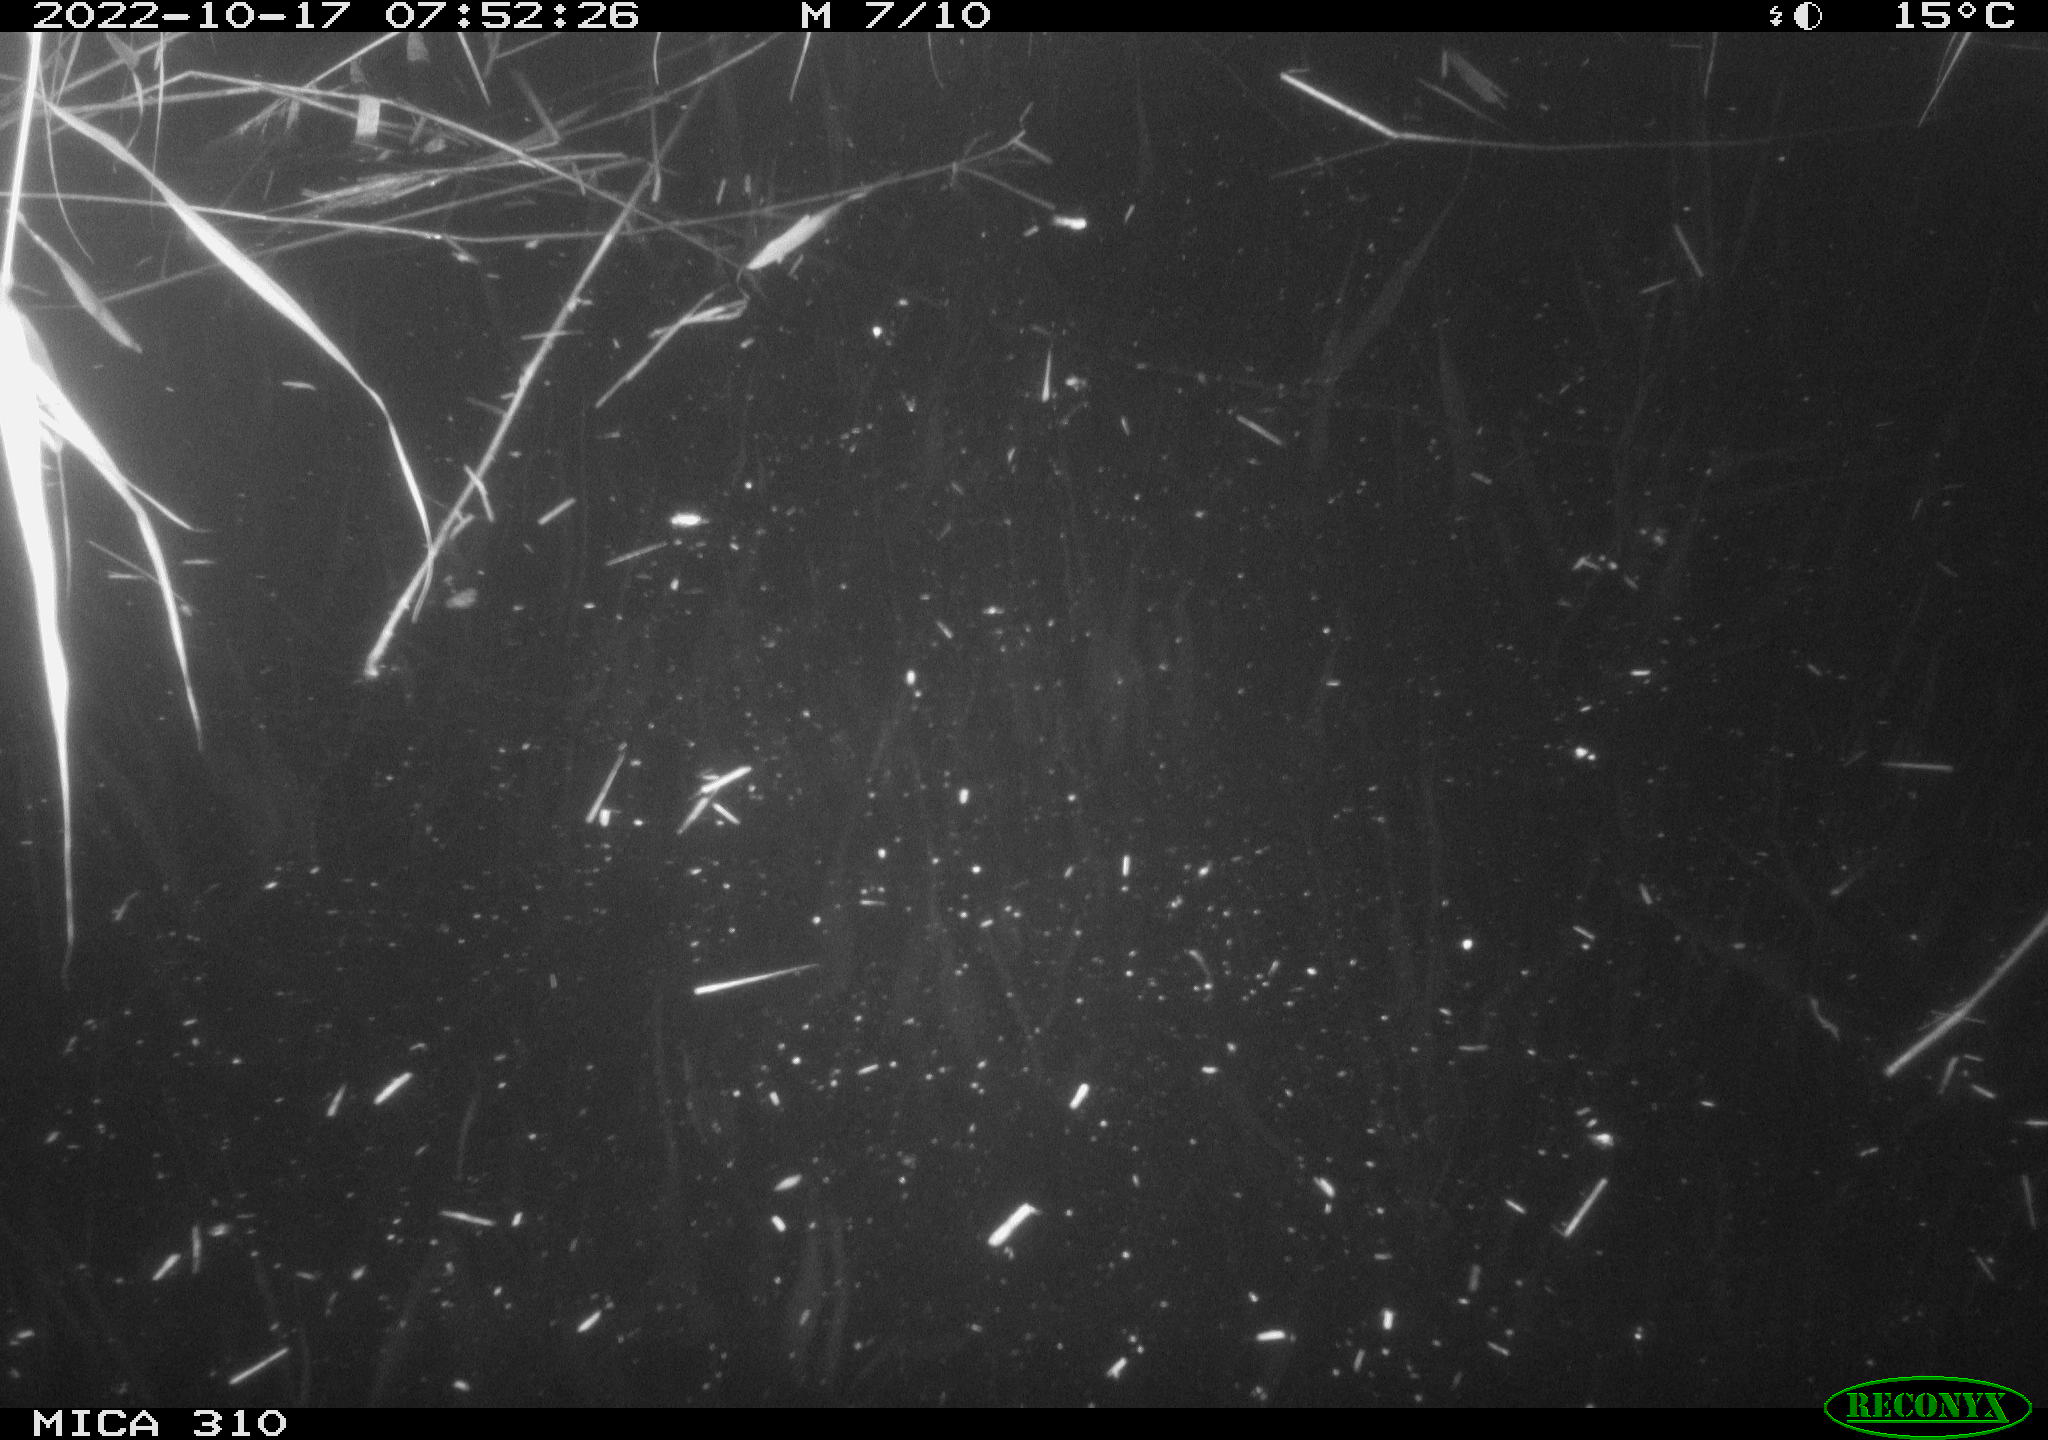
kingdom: Animalia
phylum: Chordata
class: Aves
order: Anseriformes
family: Anatidae
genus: Anas
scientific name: Anas
